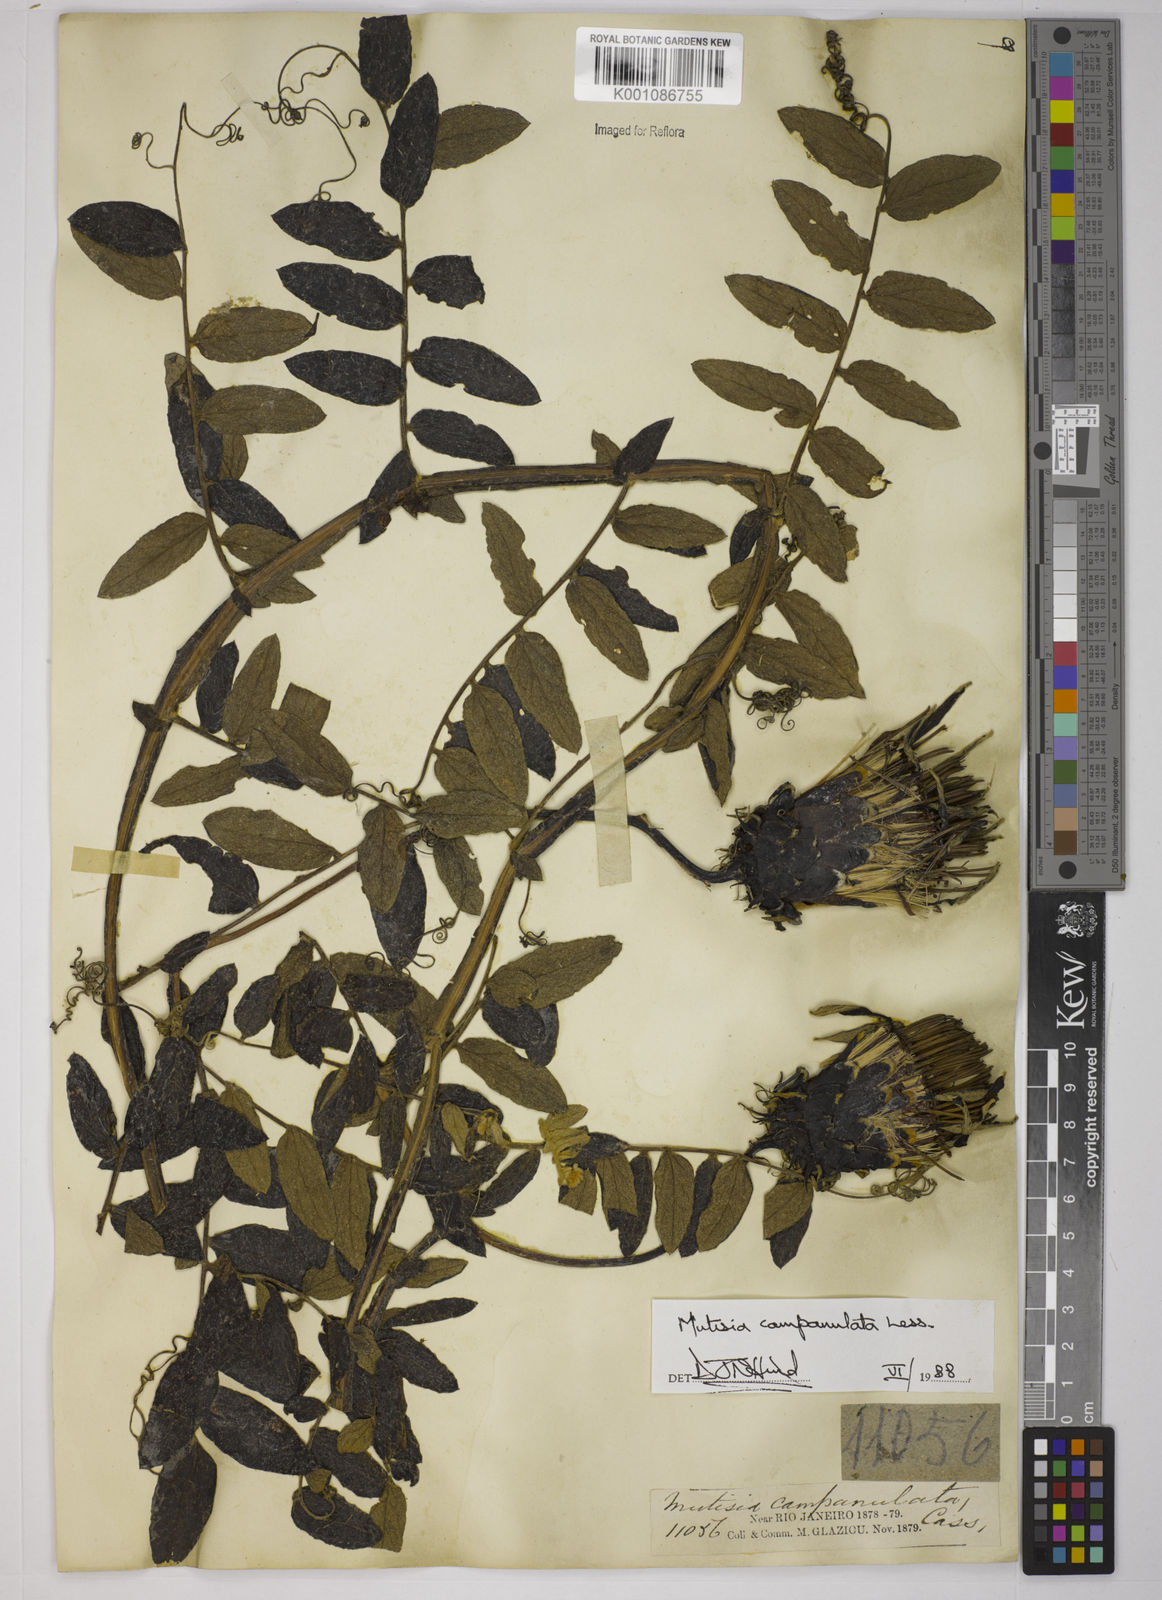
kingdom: Plantae
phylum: Tracheophyta
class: Magnoliopsida
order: Asterales
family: Asteraceae
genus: Mutisia
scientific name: Mutisia campanulata
